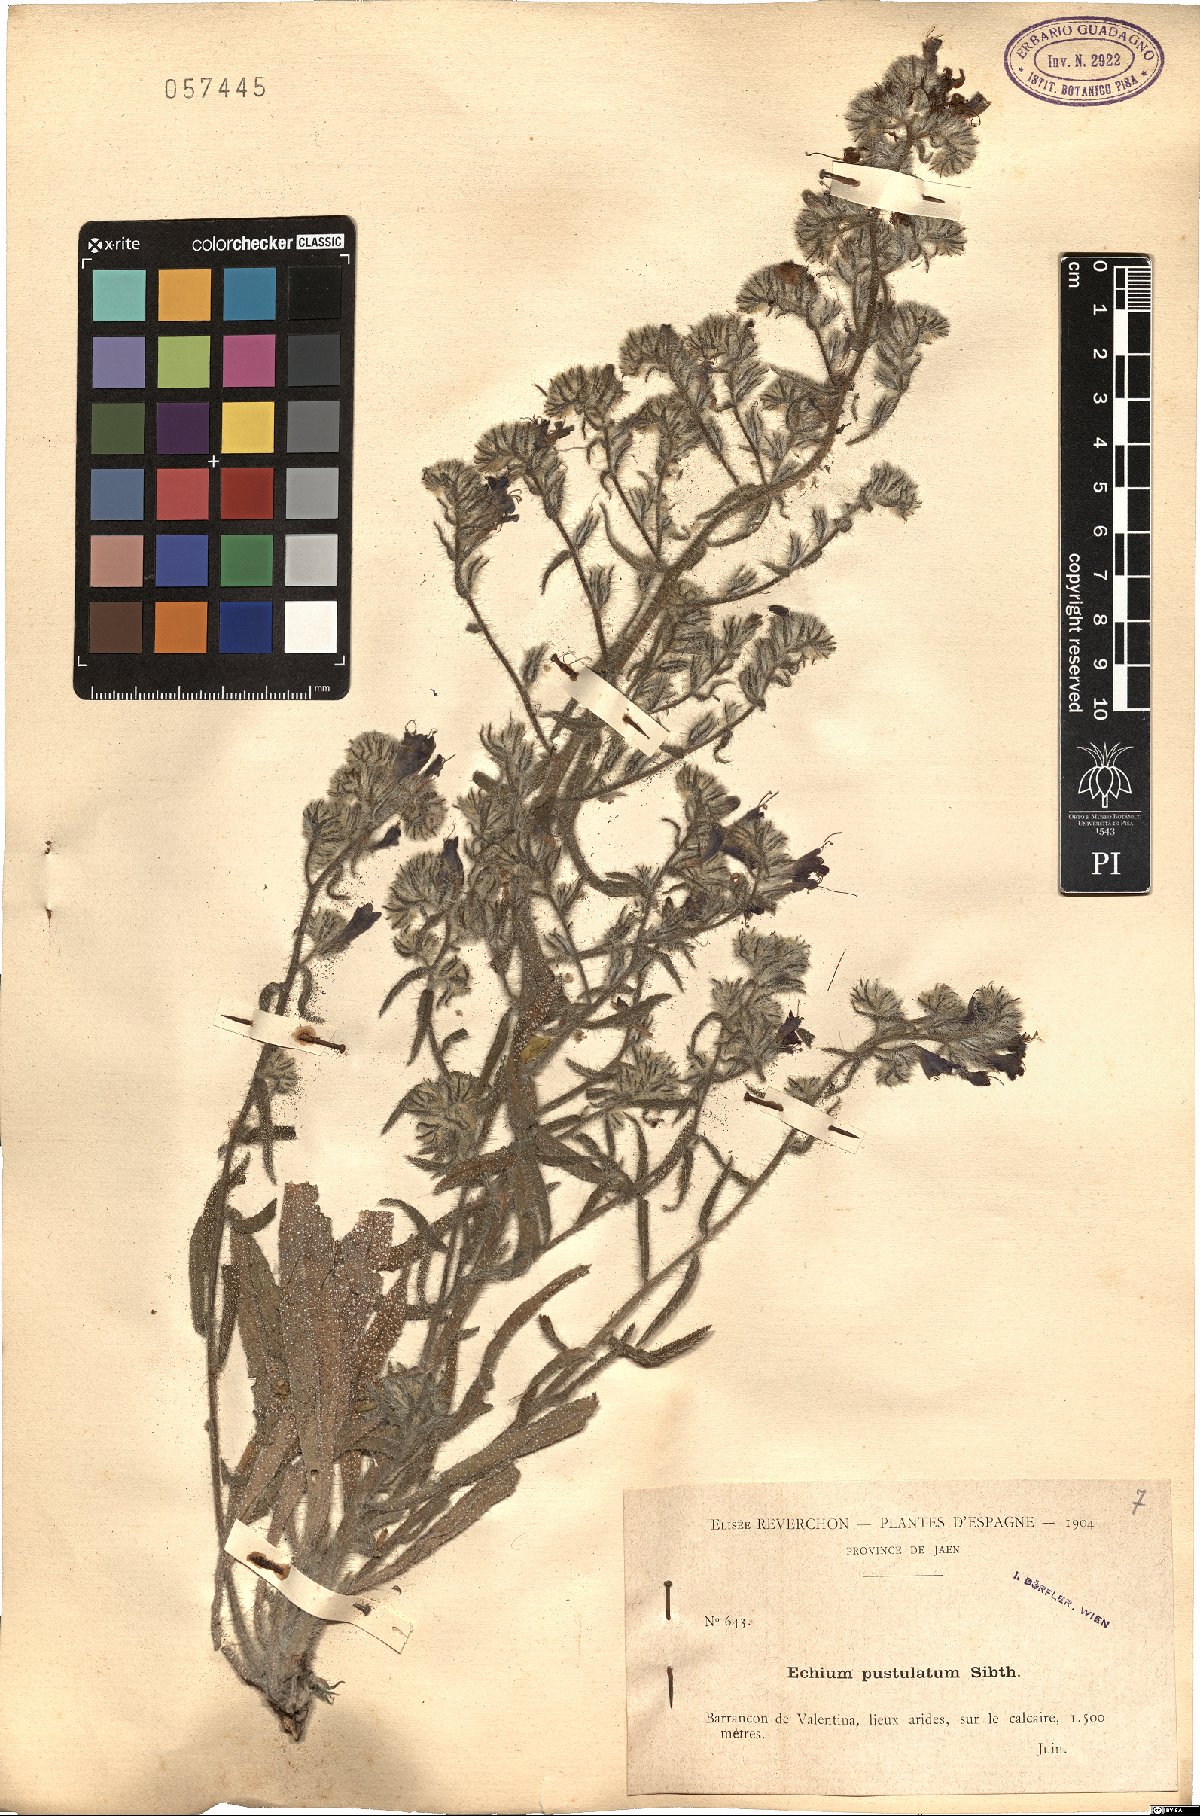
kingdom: Plantae
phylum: Tracheophyta
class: Magnoliopsida
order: Boraginales
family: Boraginaceae
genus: Echium
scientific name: Echium vulgare
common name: Common viper's bugloss
